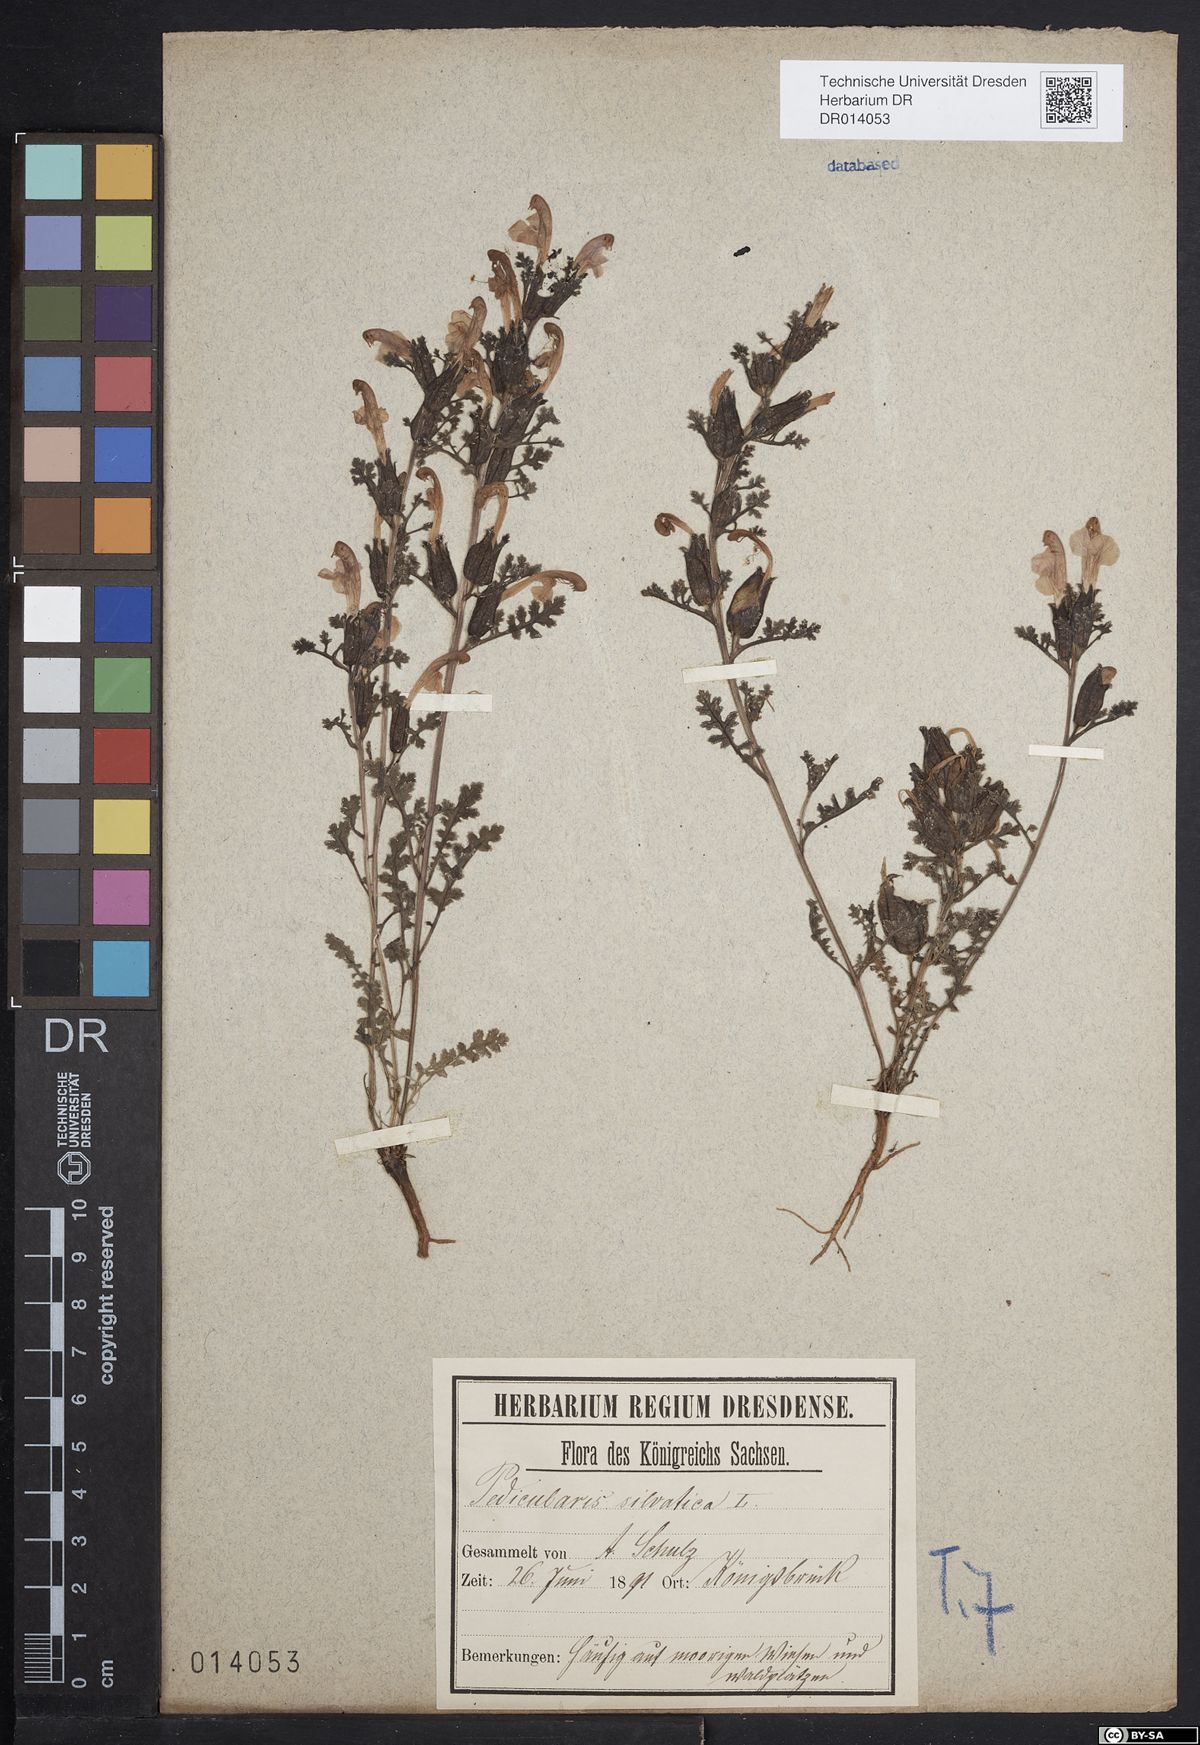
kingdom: Plantae
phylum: Tracheophyta
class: Magnoliopsida
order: Lamiales
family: Orobanchaceae
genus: Pedicularis
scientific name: Pedicularis sylvatica
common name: Lousewort
